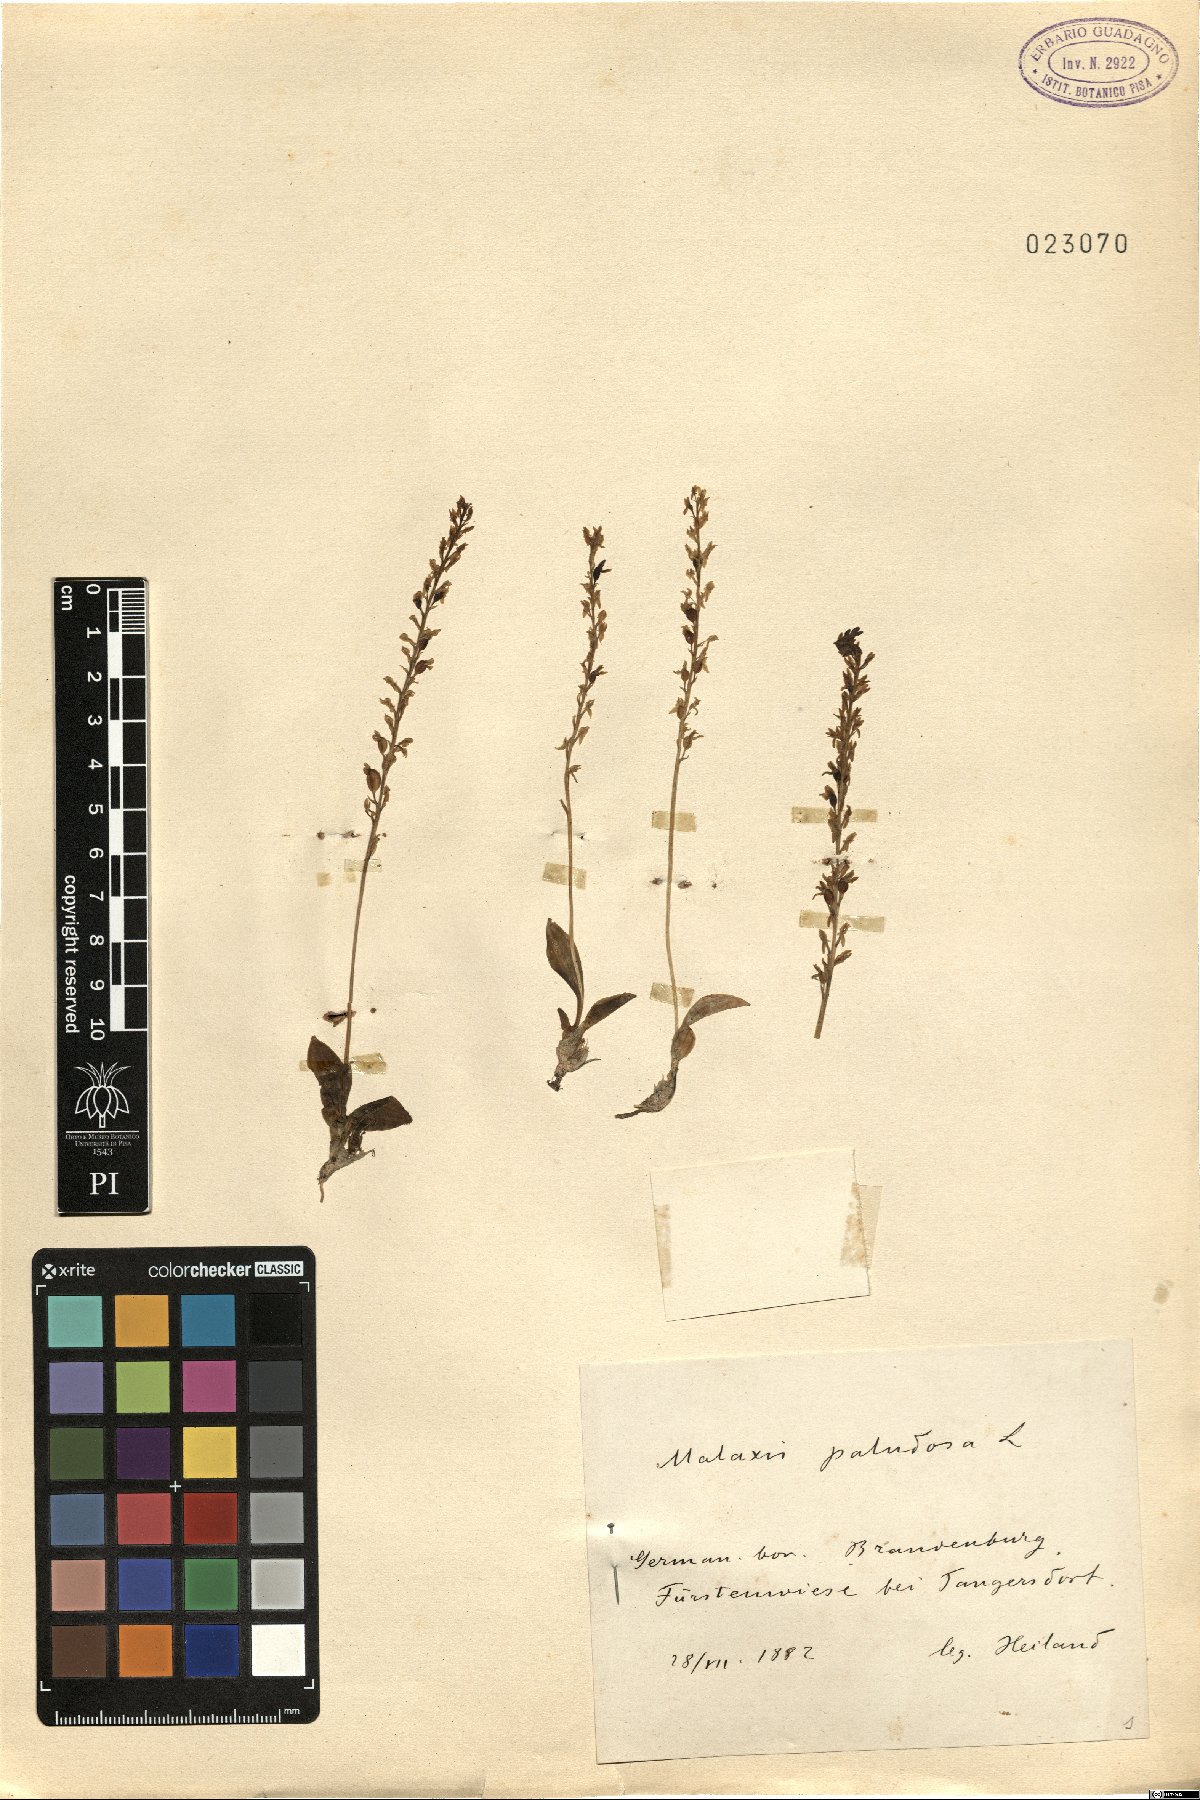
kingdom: Plantae
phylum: Tracheophyta
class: Liliopsida
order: Asparagales
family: Orchidaceae
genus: Hammarbya
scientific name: Hammarbya paludosa
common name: Bog orchid
